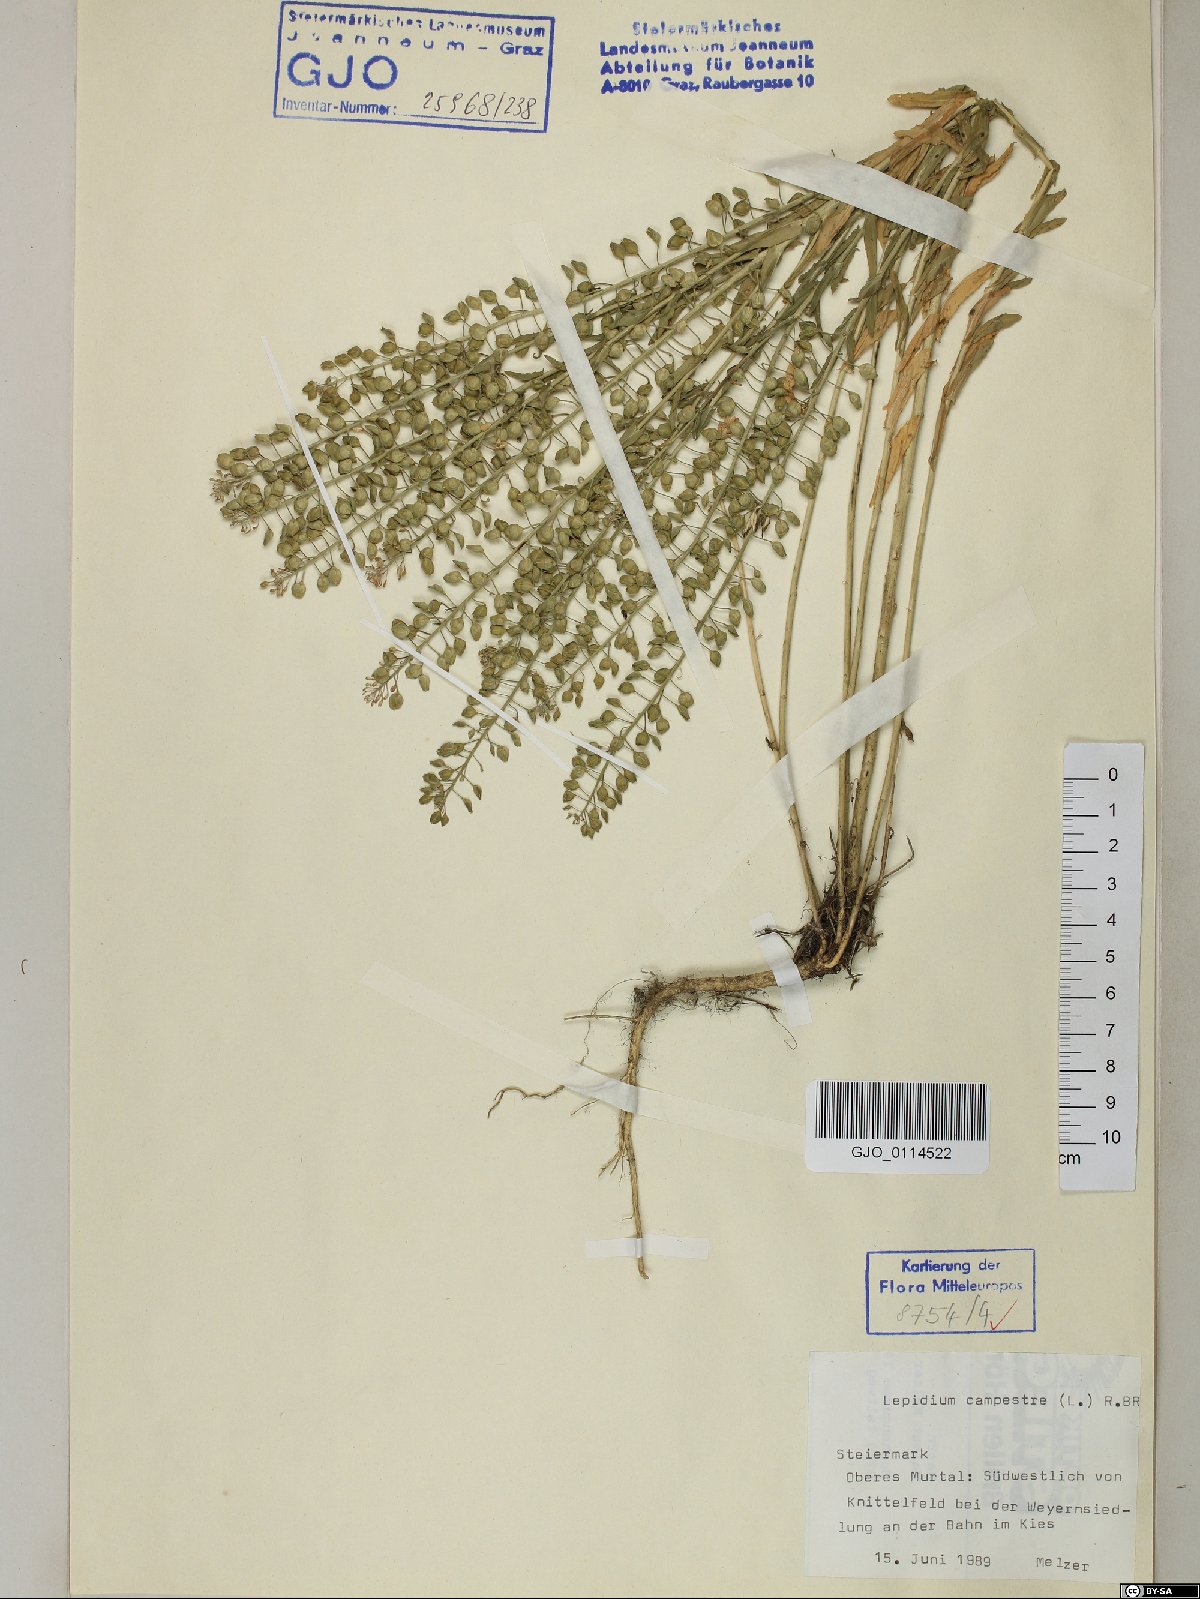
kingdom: Plantae
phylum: Tracheophyta
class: Magnoliopsida
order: Brassicales
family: Brassicaceae
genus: Lepidium
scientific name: Lepidium campestre
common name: Field pepperwort
